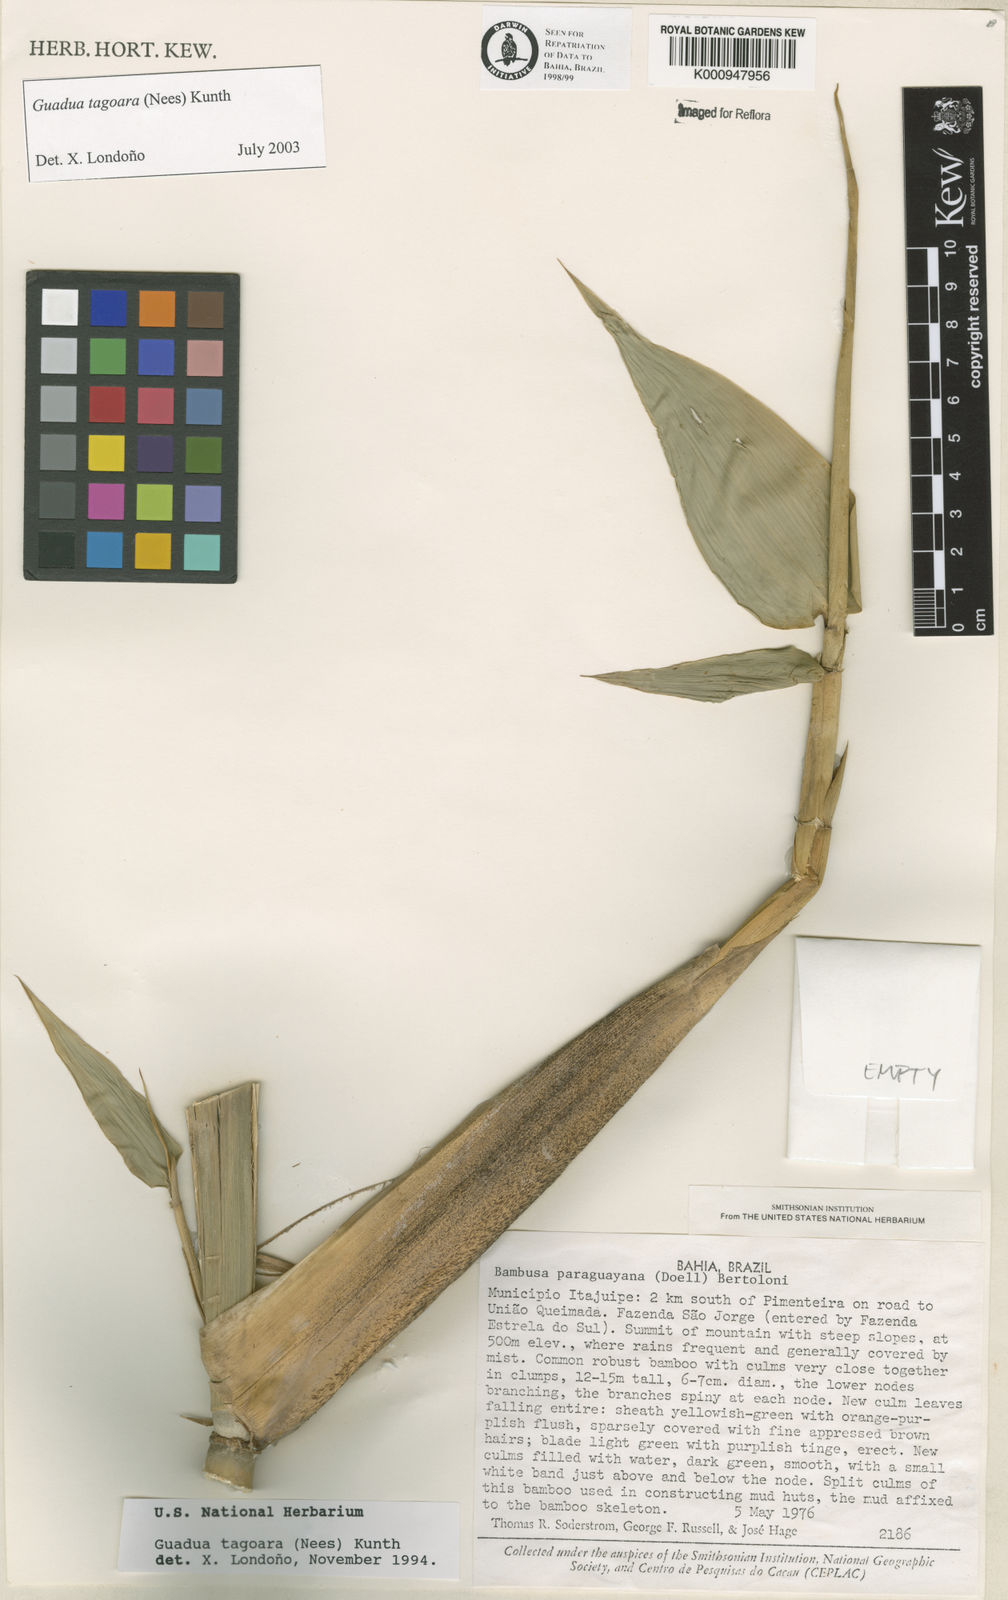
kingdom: Plantae
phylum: Tracheophyta
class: Liliopsida
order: Poales
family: Poaceae
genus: Guadua
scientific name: Guadua tagoara
